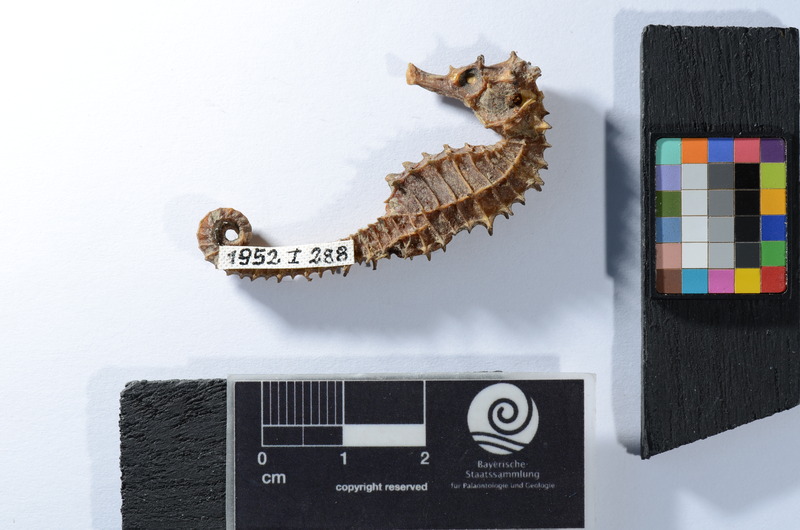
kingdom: Animalia
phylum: Chordata
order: Syngnathiformes
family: Syngnathidae
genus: Hippocampus
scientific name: Hippocampus hippocampus
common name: Short-snouted seahorse
